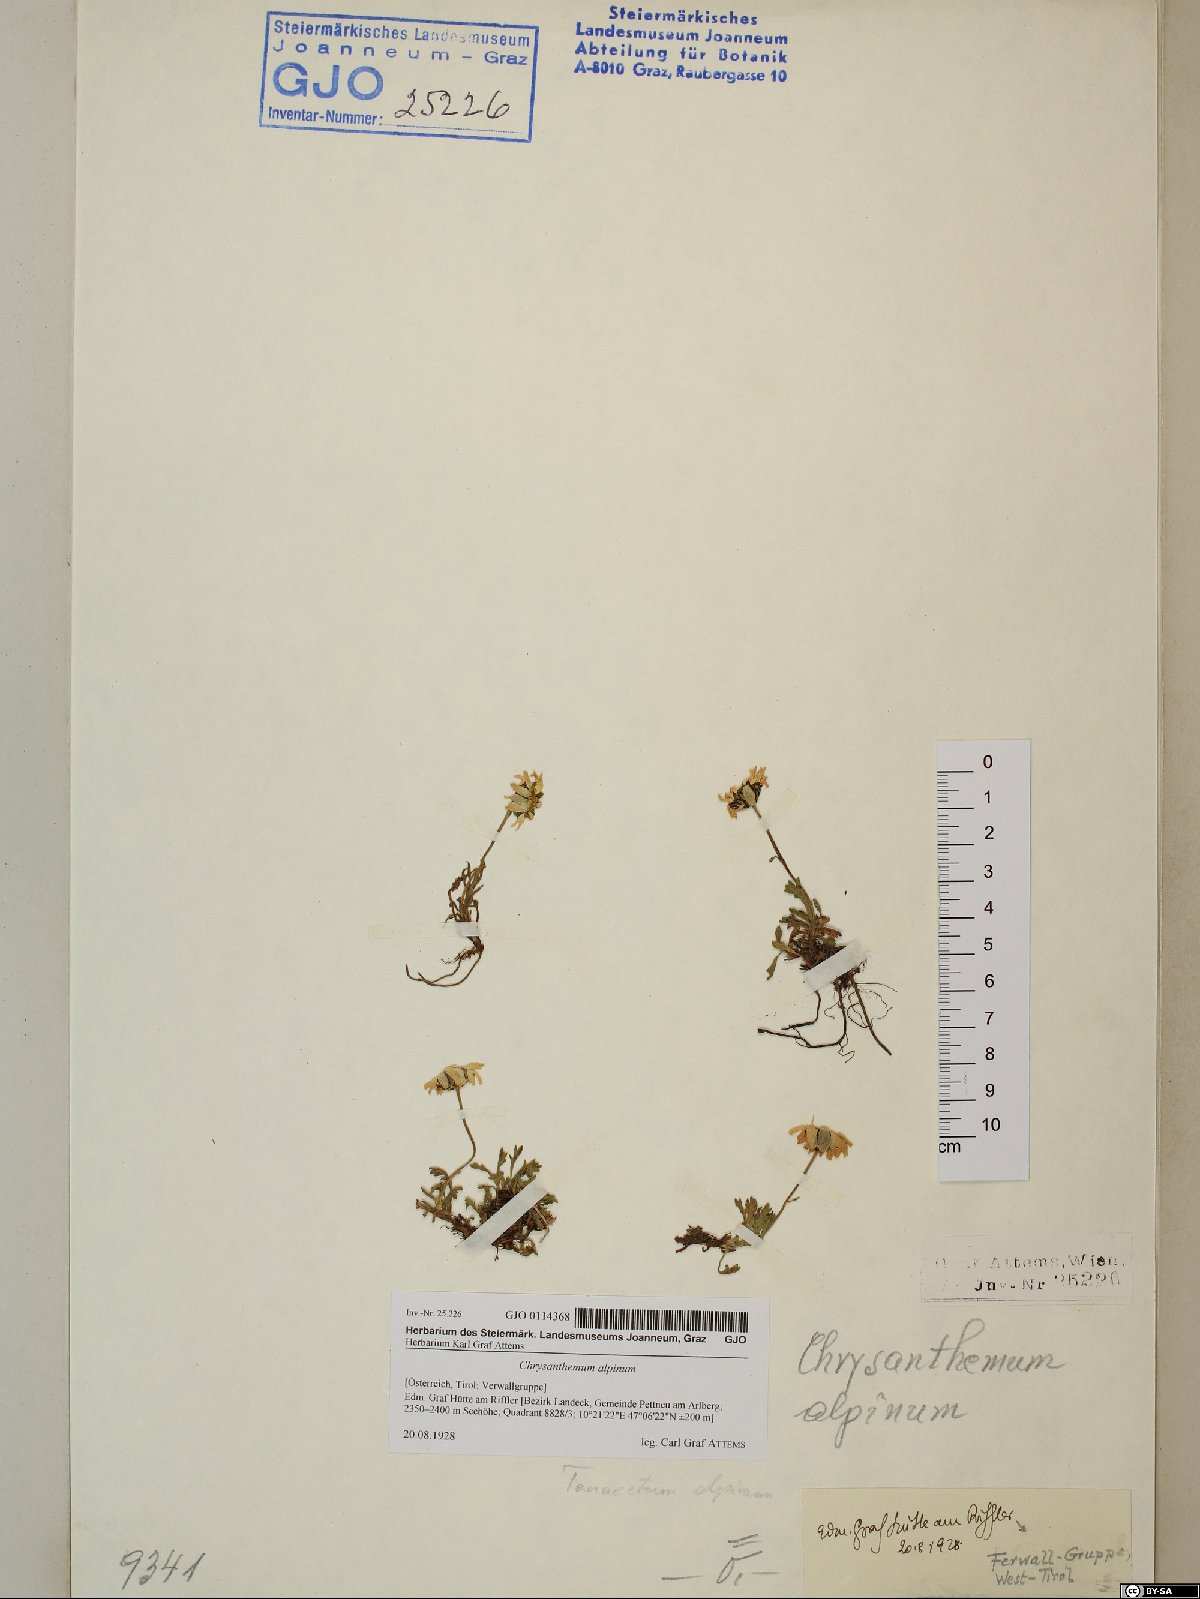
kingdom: Plantae
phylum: Tracheophyta
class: Magnoliopsida
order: Asterales
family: Asteraceae
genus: Leucanthemopsis
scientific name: Leucanthemopsis alpina
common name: Alpine moon daisy
